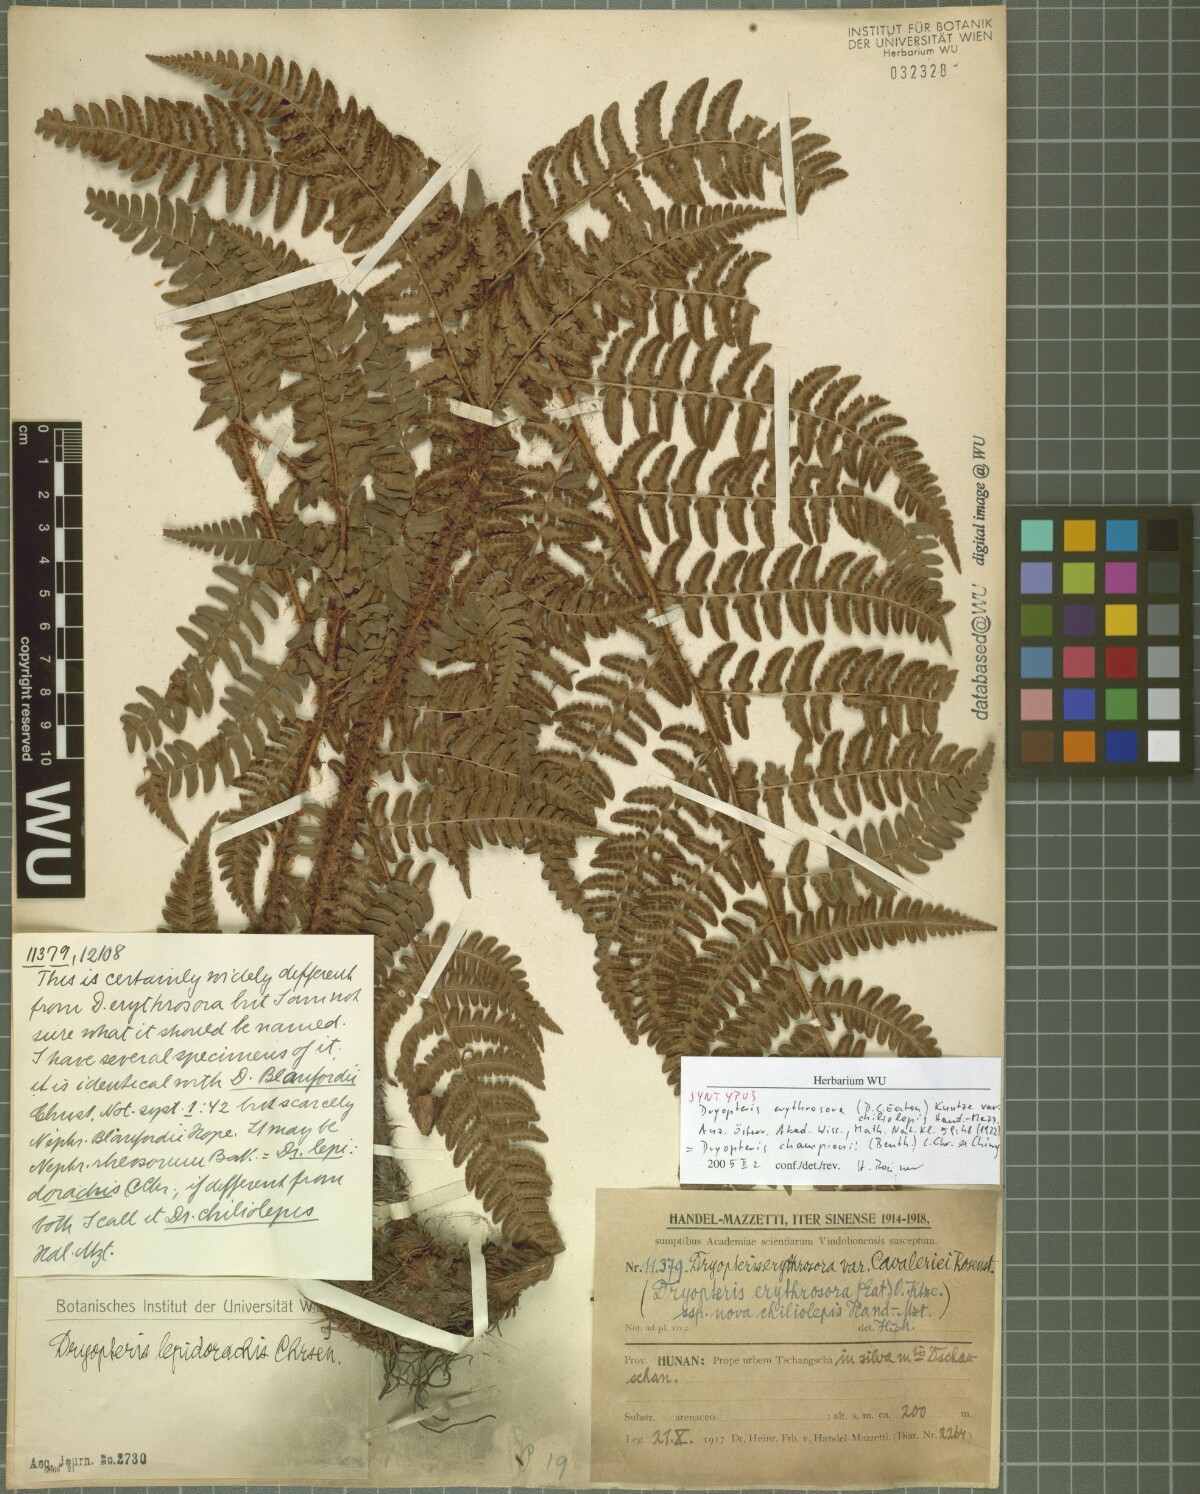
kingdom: Plantae
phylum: Tracheophyta
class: Polypodiopsida
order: Polypodiales
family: Dryopteridaceae
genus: Dryopteris
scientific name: Dryopteris championiae
